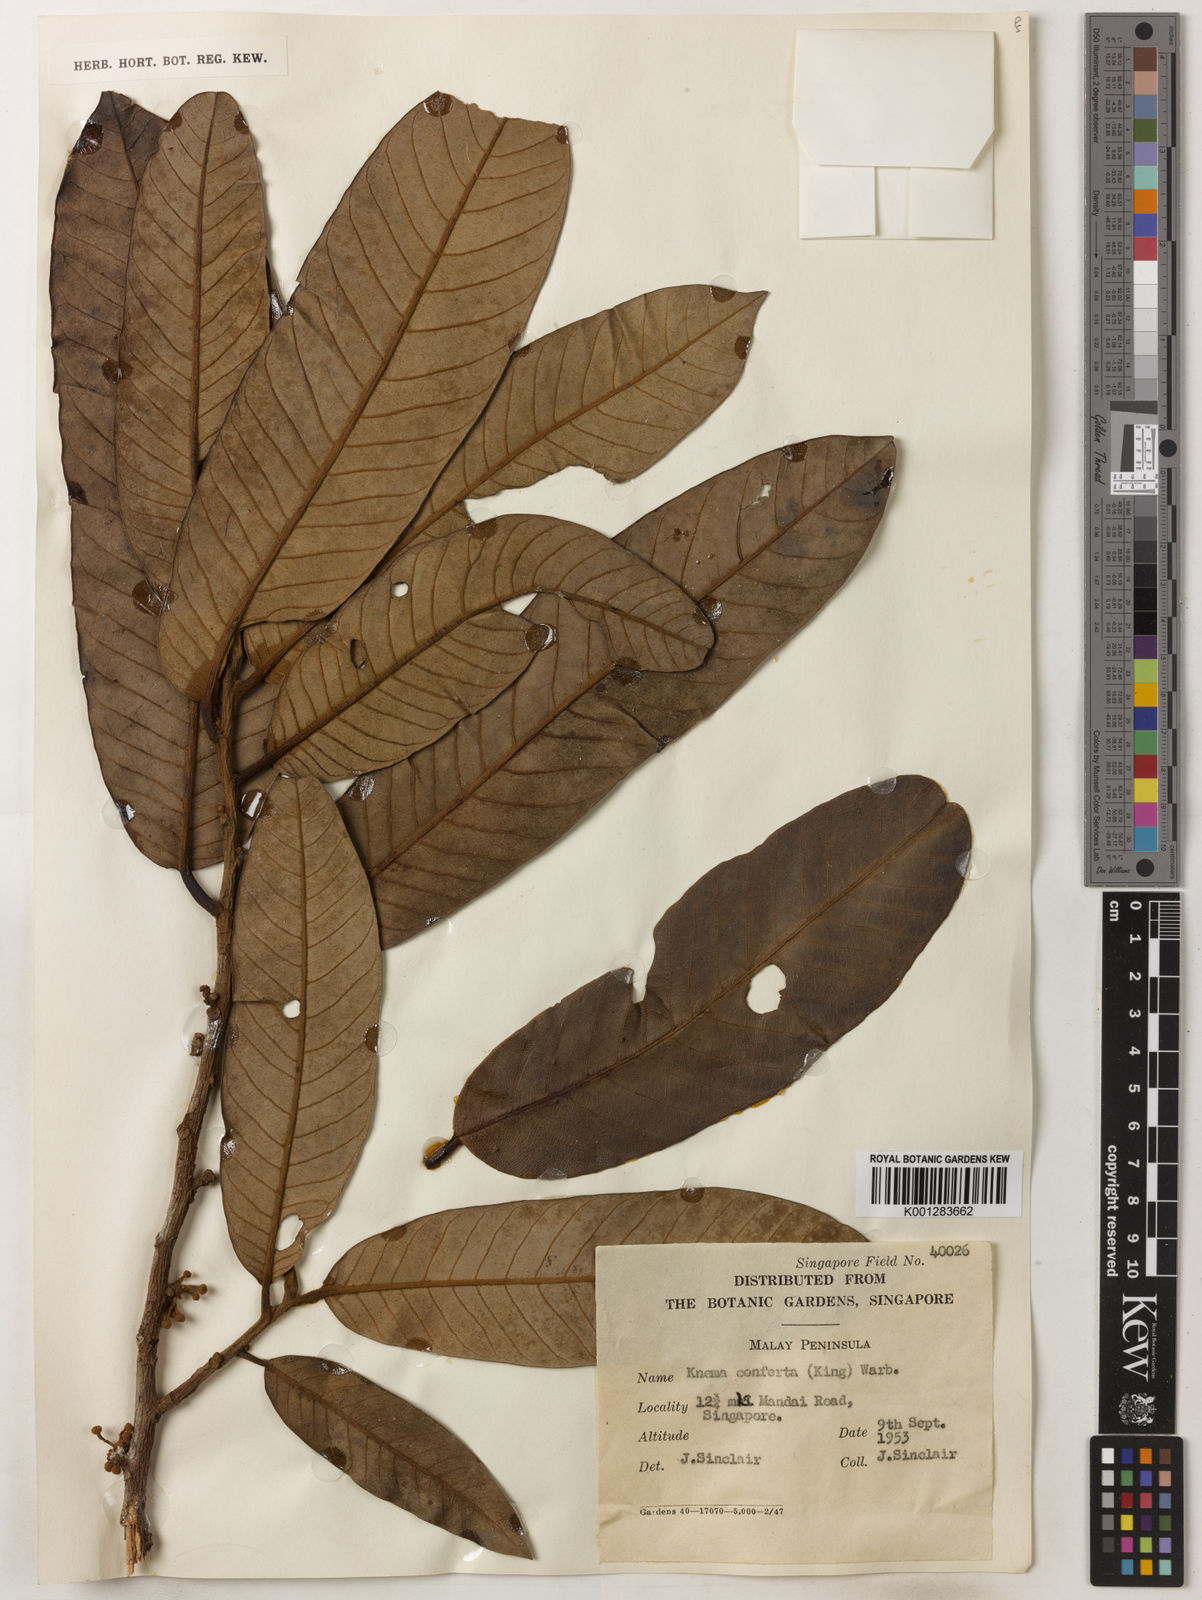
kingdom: Plantae
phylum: Tracheophyta
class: Magnoliopsida
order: Magnoliales
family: Myristicaceae
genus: Knema
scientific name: Knema conferta
